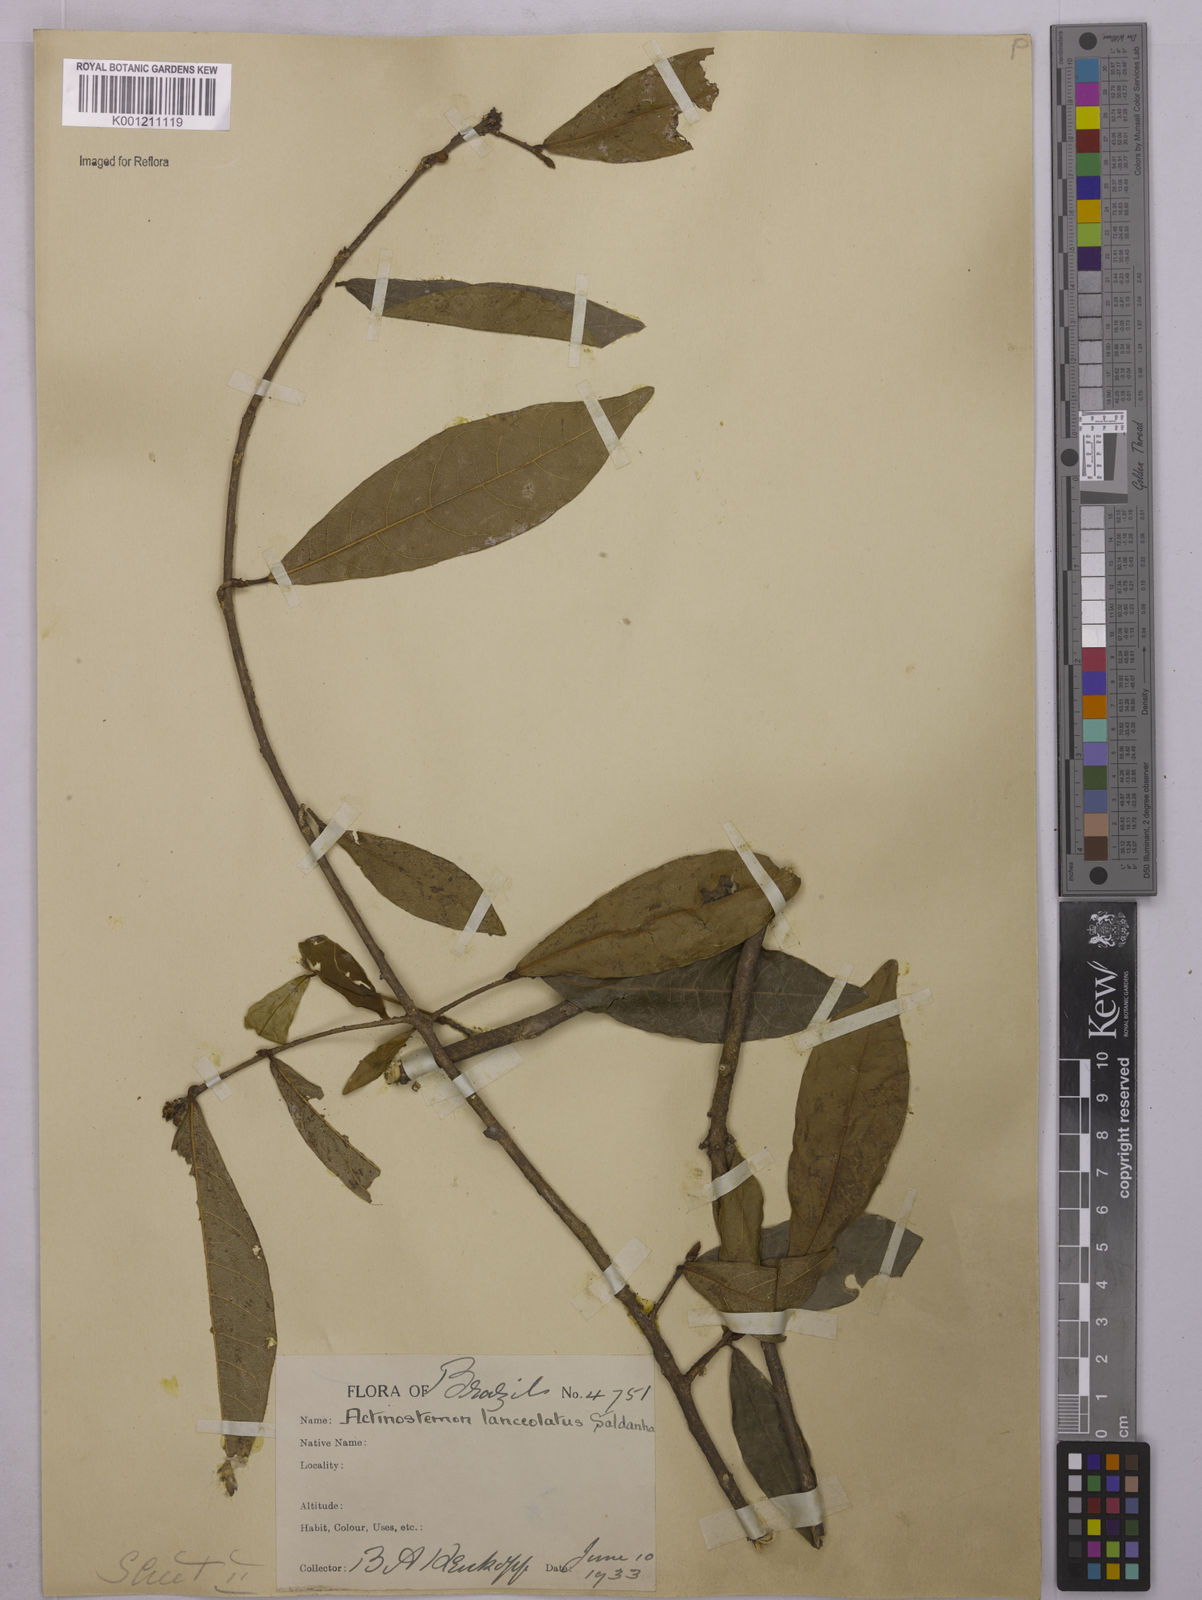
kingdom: Plantae
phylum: Tracheophyta
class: Magnoliopsida
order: Malpighiales
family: Euphorbiaceae
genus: Actinostemon
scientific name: Actinostemon
